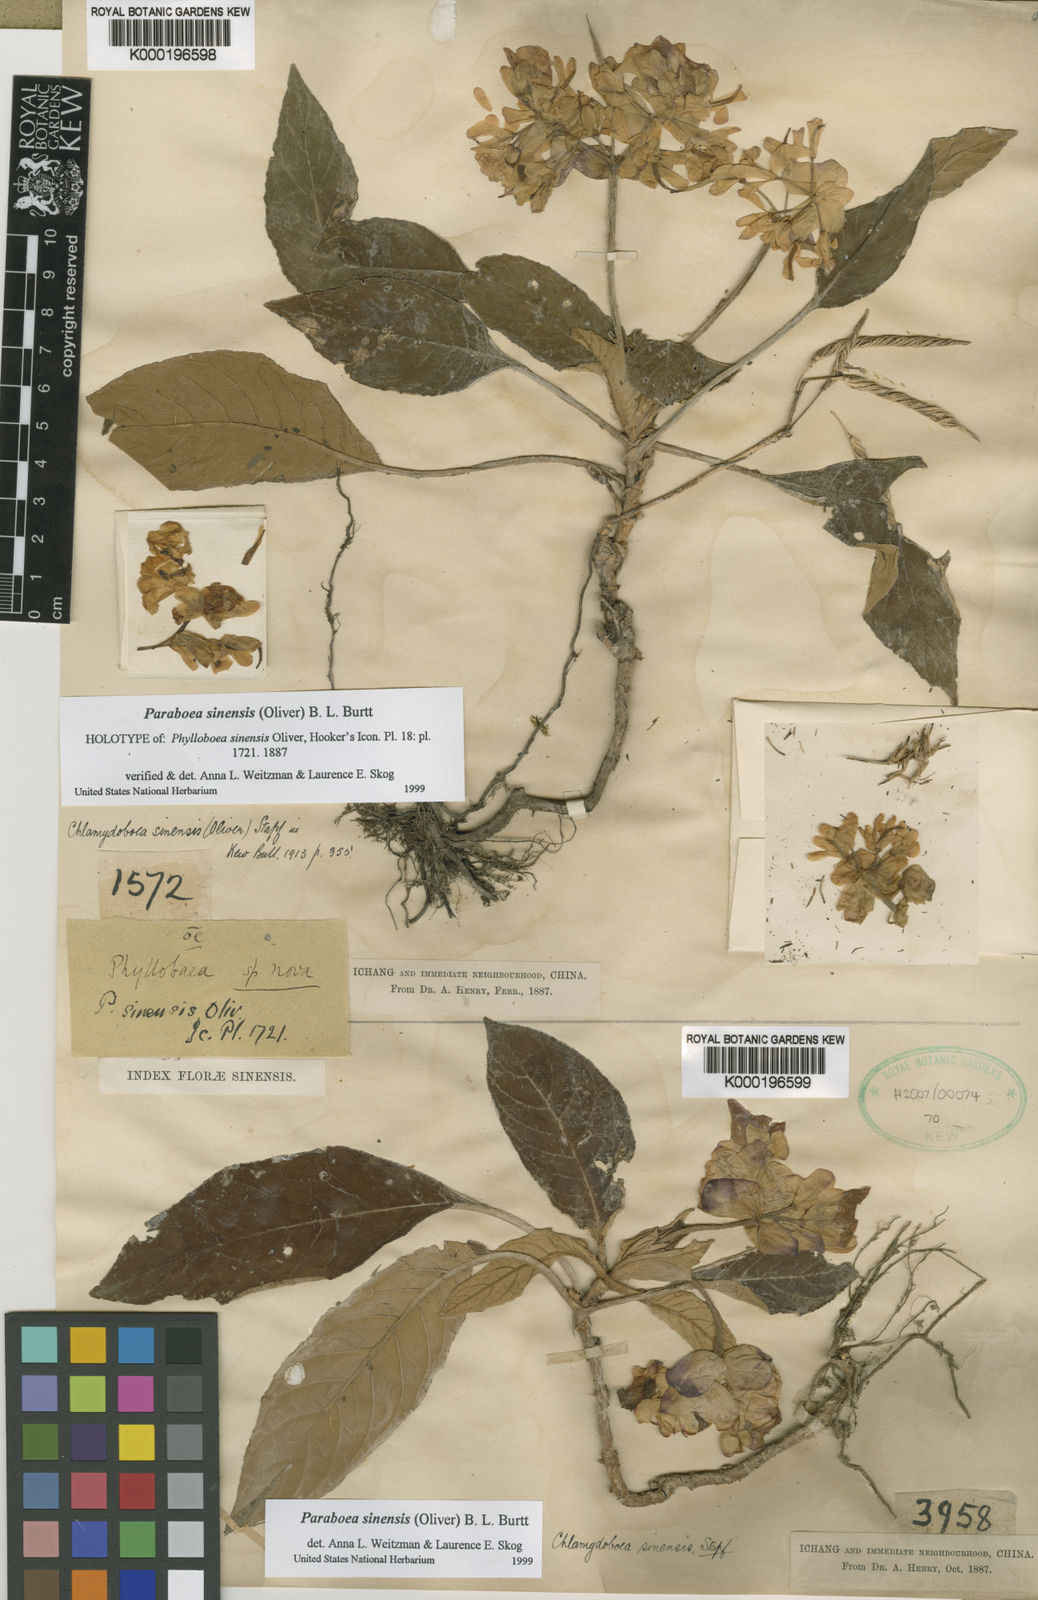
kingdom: Plantae
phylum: Tracheophyta
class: Magnoliopsida
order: Lamiales
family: Gesneriaceae
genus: Paraboea
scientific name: Paraboea sinensis
